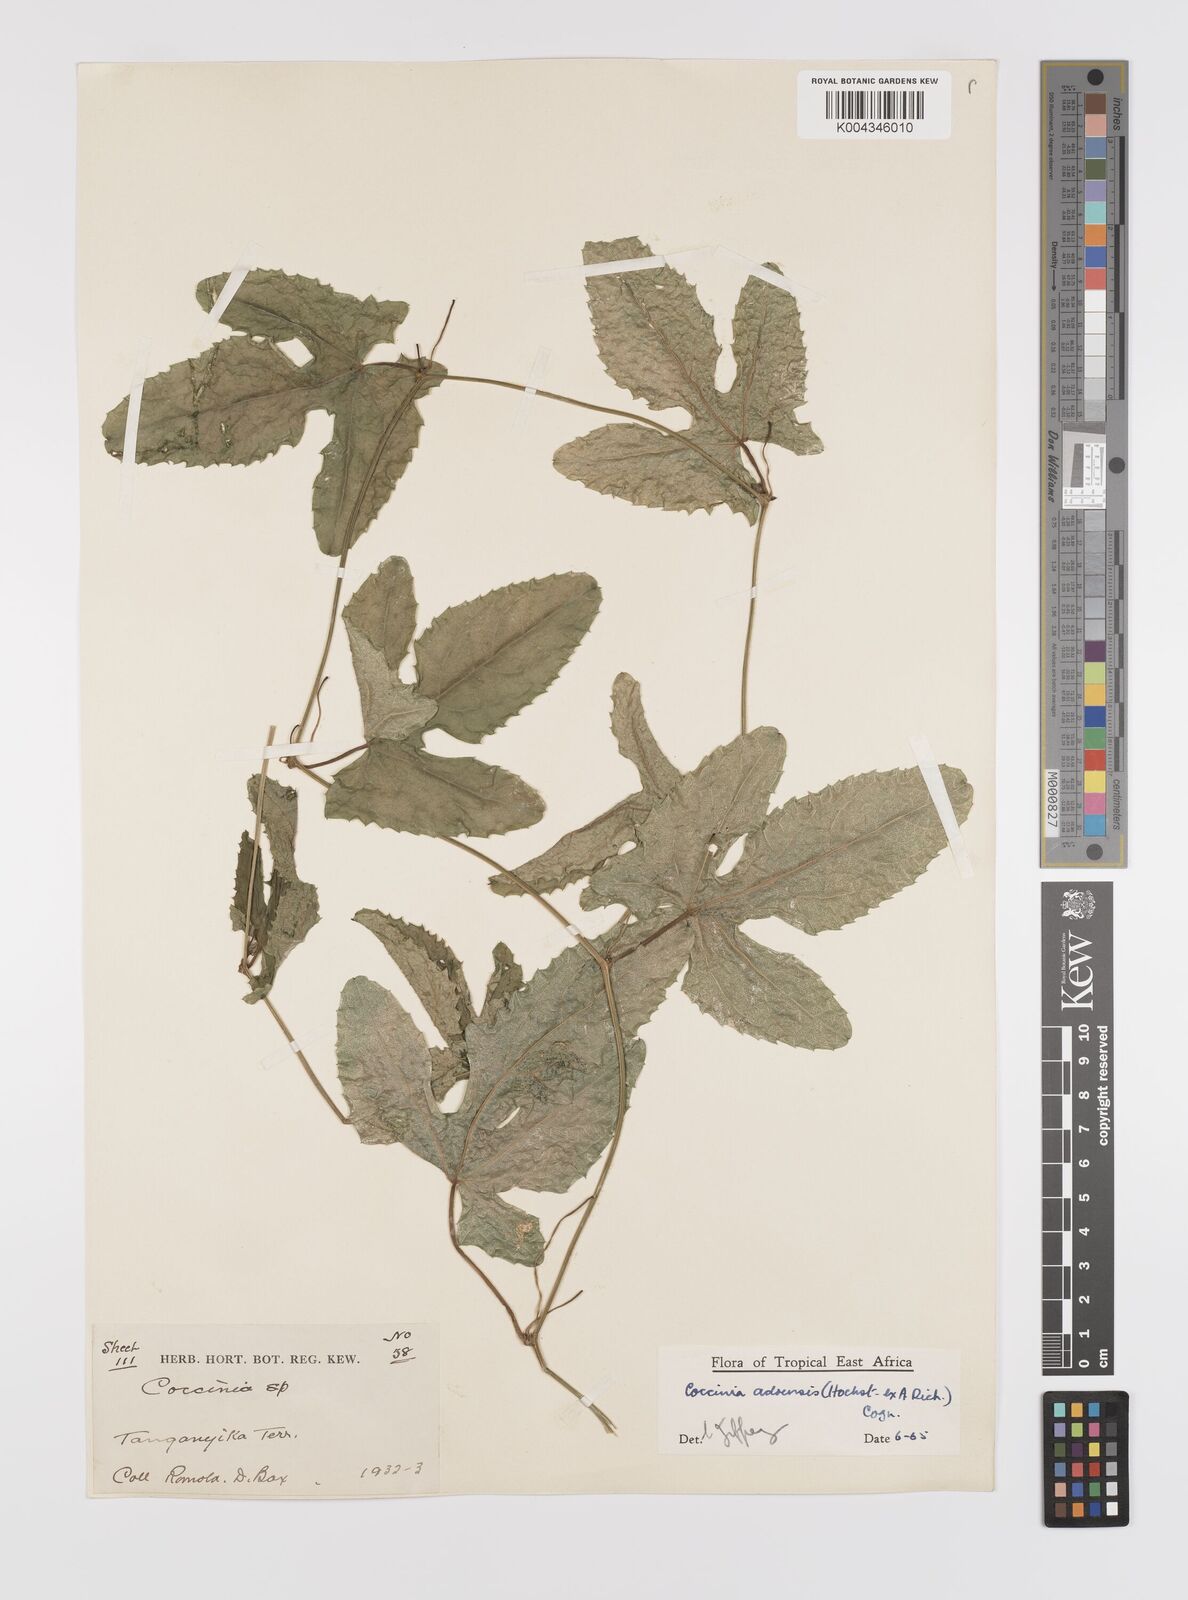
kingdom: Plantae
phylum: Tracheophyta
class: Magnoliopsida
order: Cucurbitales
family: Cucurbitaceae
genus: Coccinia
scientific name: Coccinia adoensis
